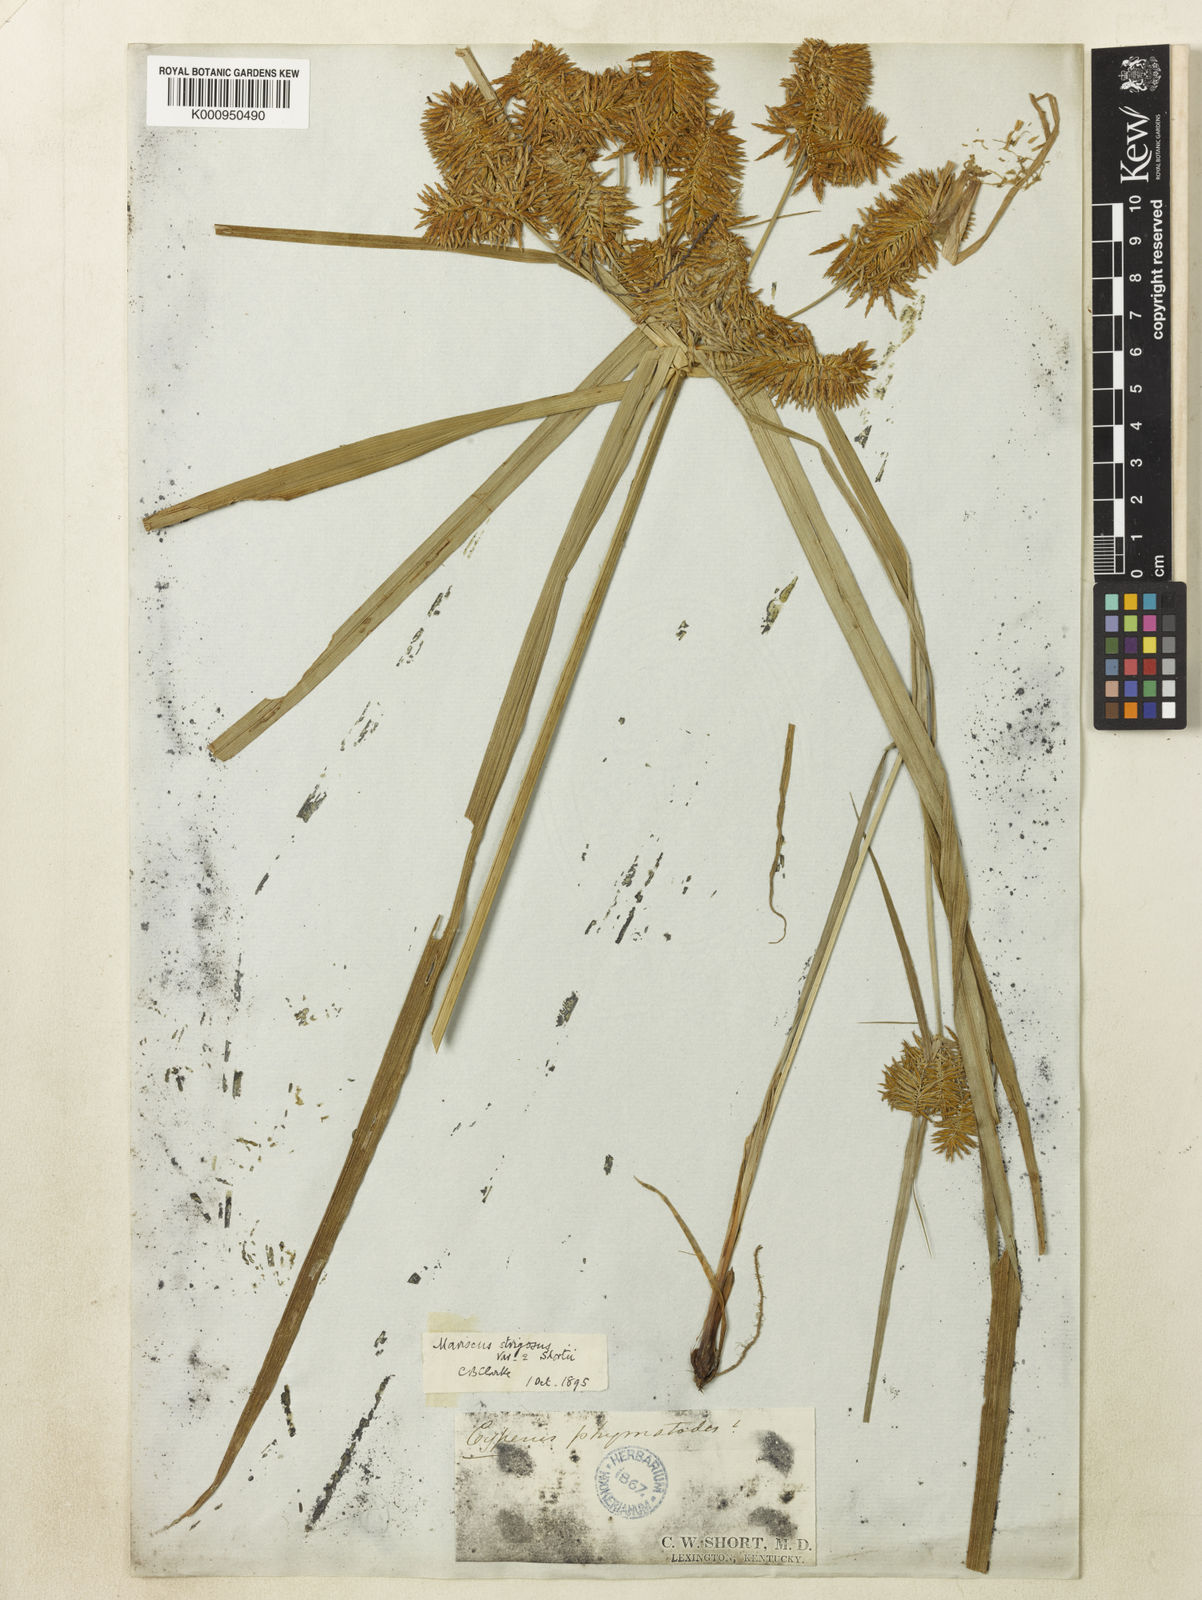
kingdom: Plantae
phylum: Tracheophyta
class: Liliopsida
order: Poales
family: Cyperaceae
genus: Cyperus
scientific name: Cyperus strigosus
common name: False nutsedge
